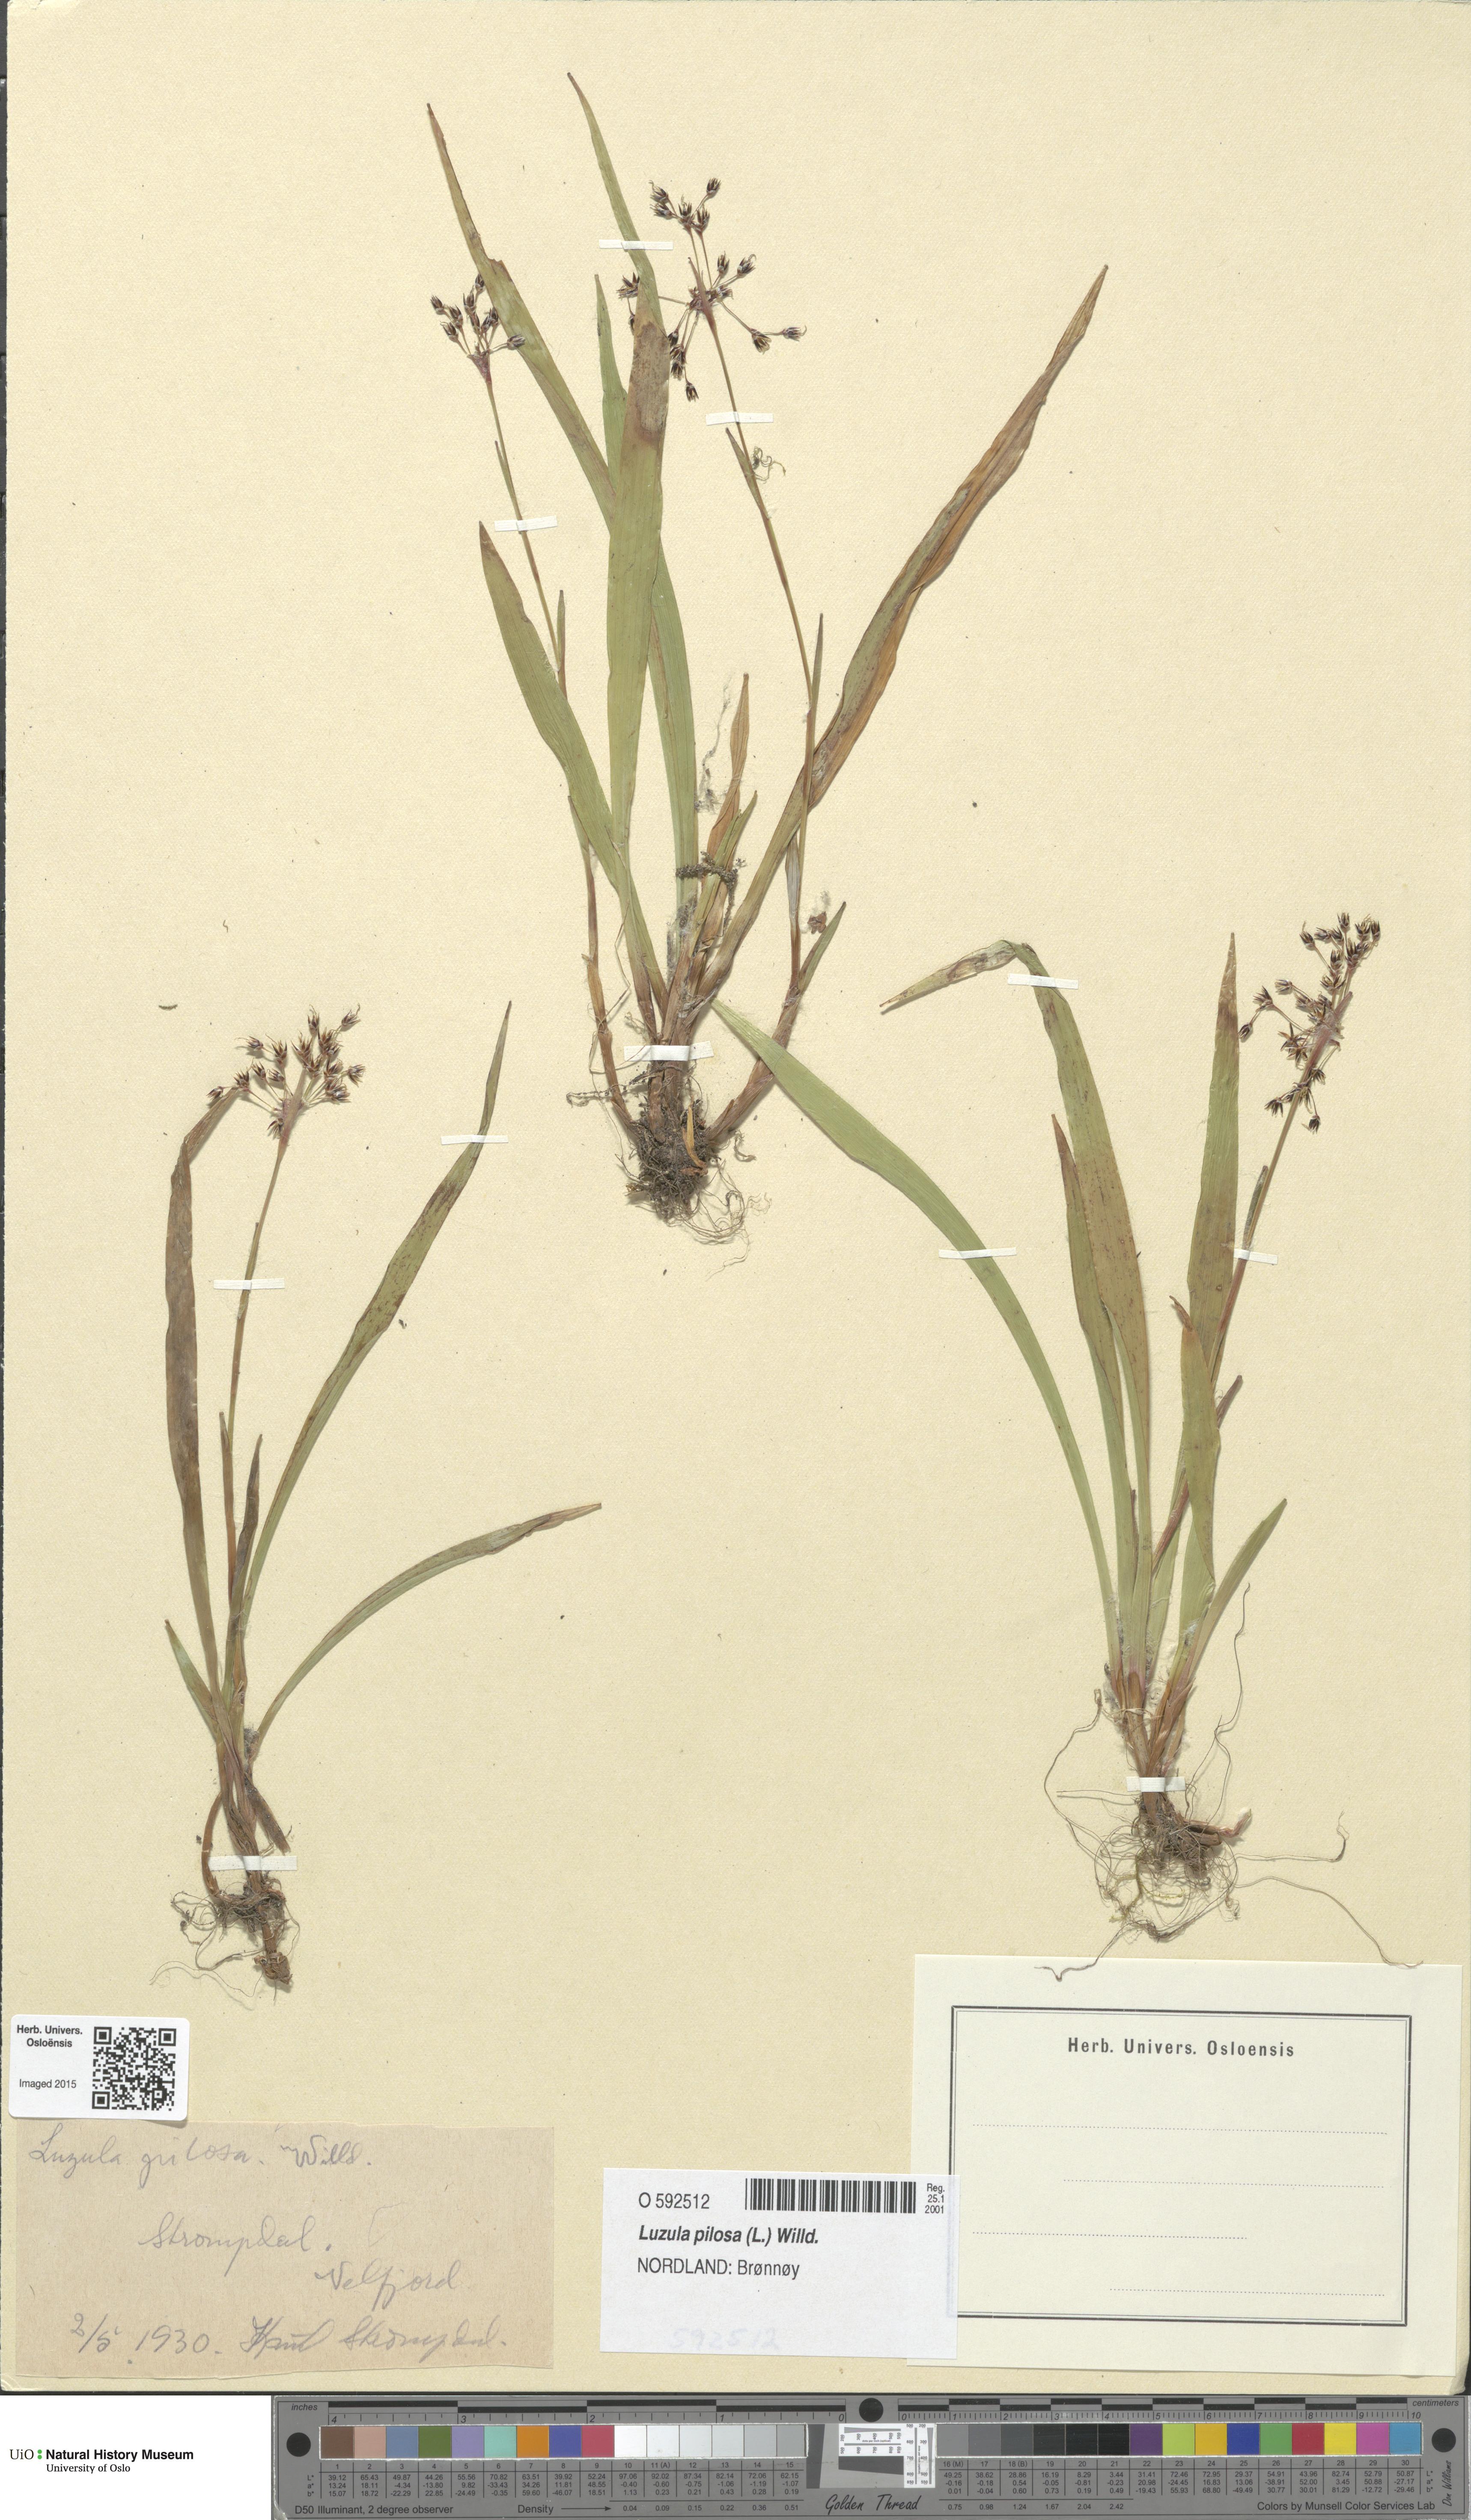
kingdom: Plantae
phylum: Tracheophyta
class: Liliopsida
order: Poales
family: Juncaceae
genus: Luzula
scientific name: Luzula pilosa
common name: Hairy wood-rush
